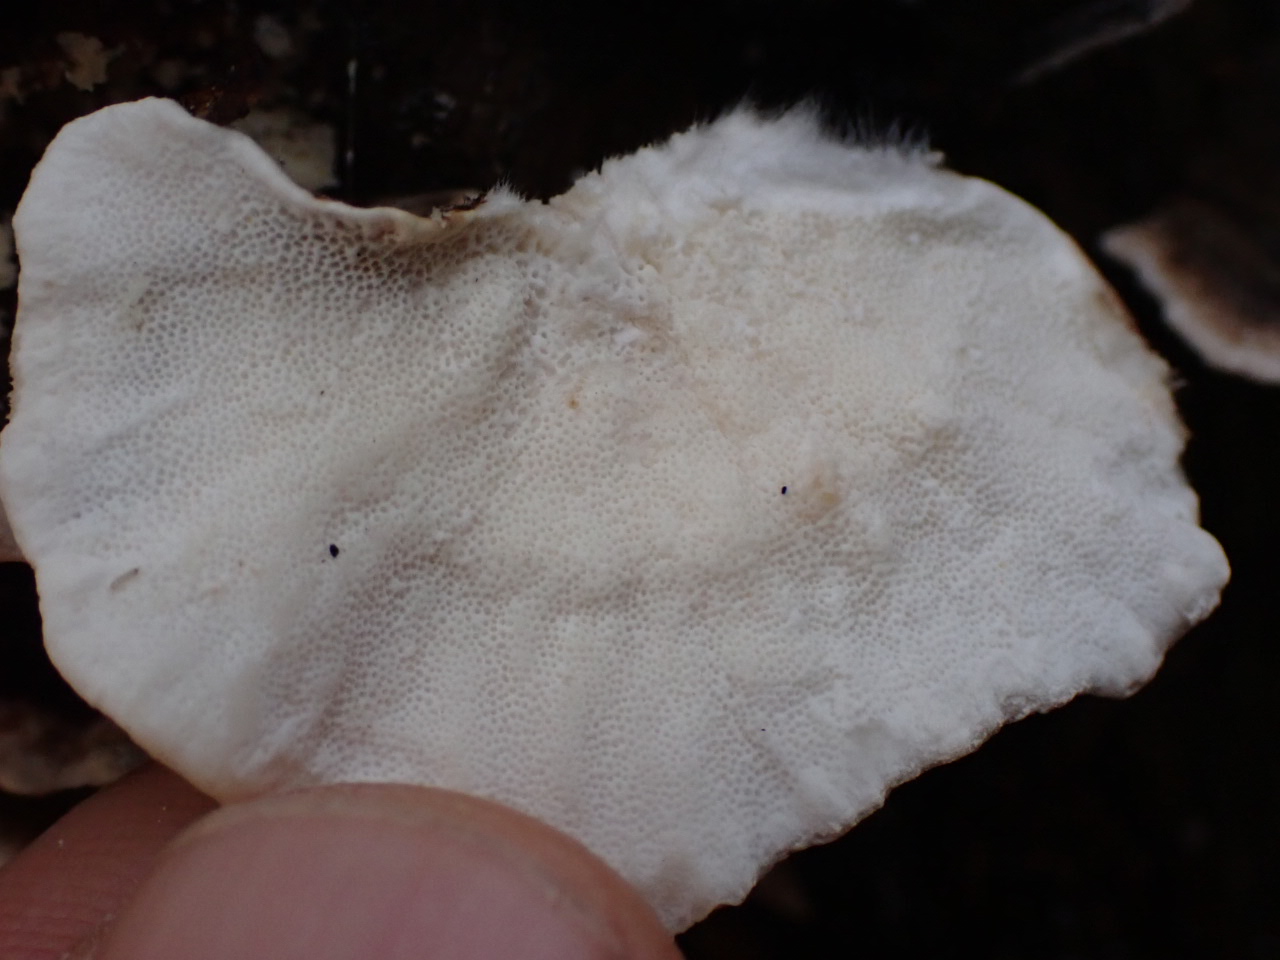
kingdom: Fungi
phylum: Basidiomycota
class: Agaricomycetes
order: Polyporales
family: Polyporaceae
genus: Trametes
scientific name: Trametes versicolor
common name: broget læderporesvamp
